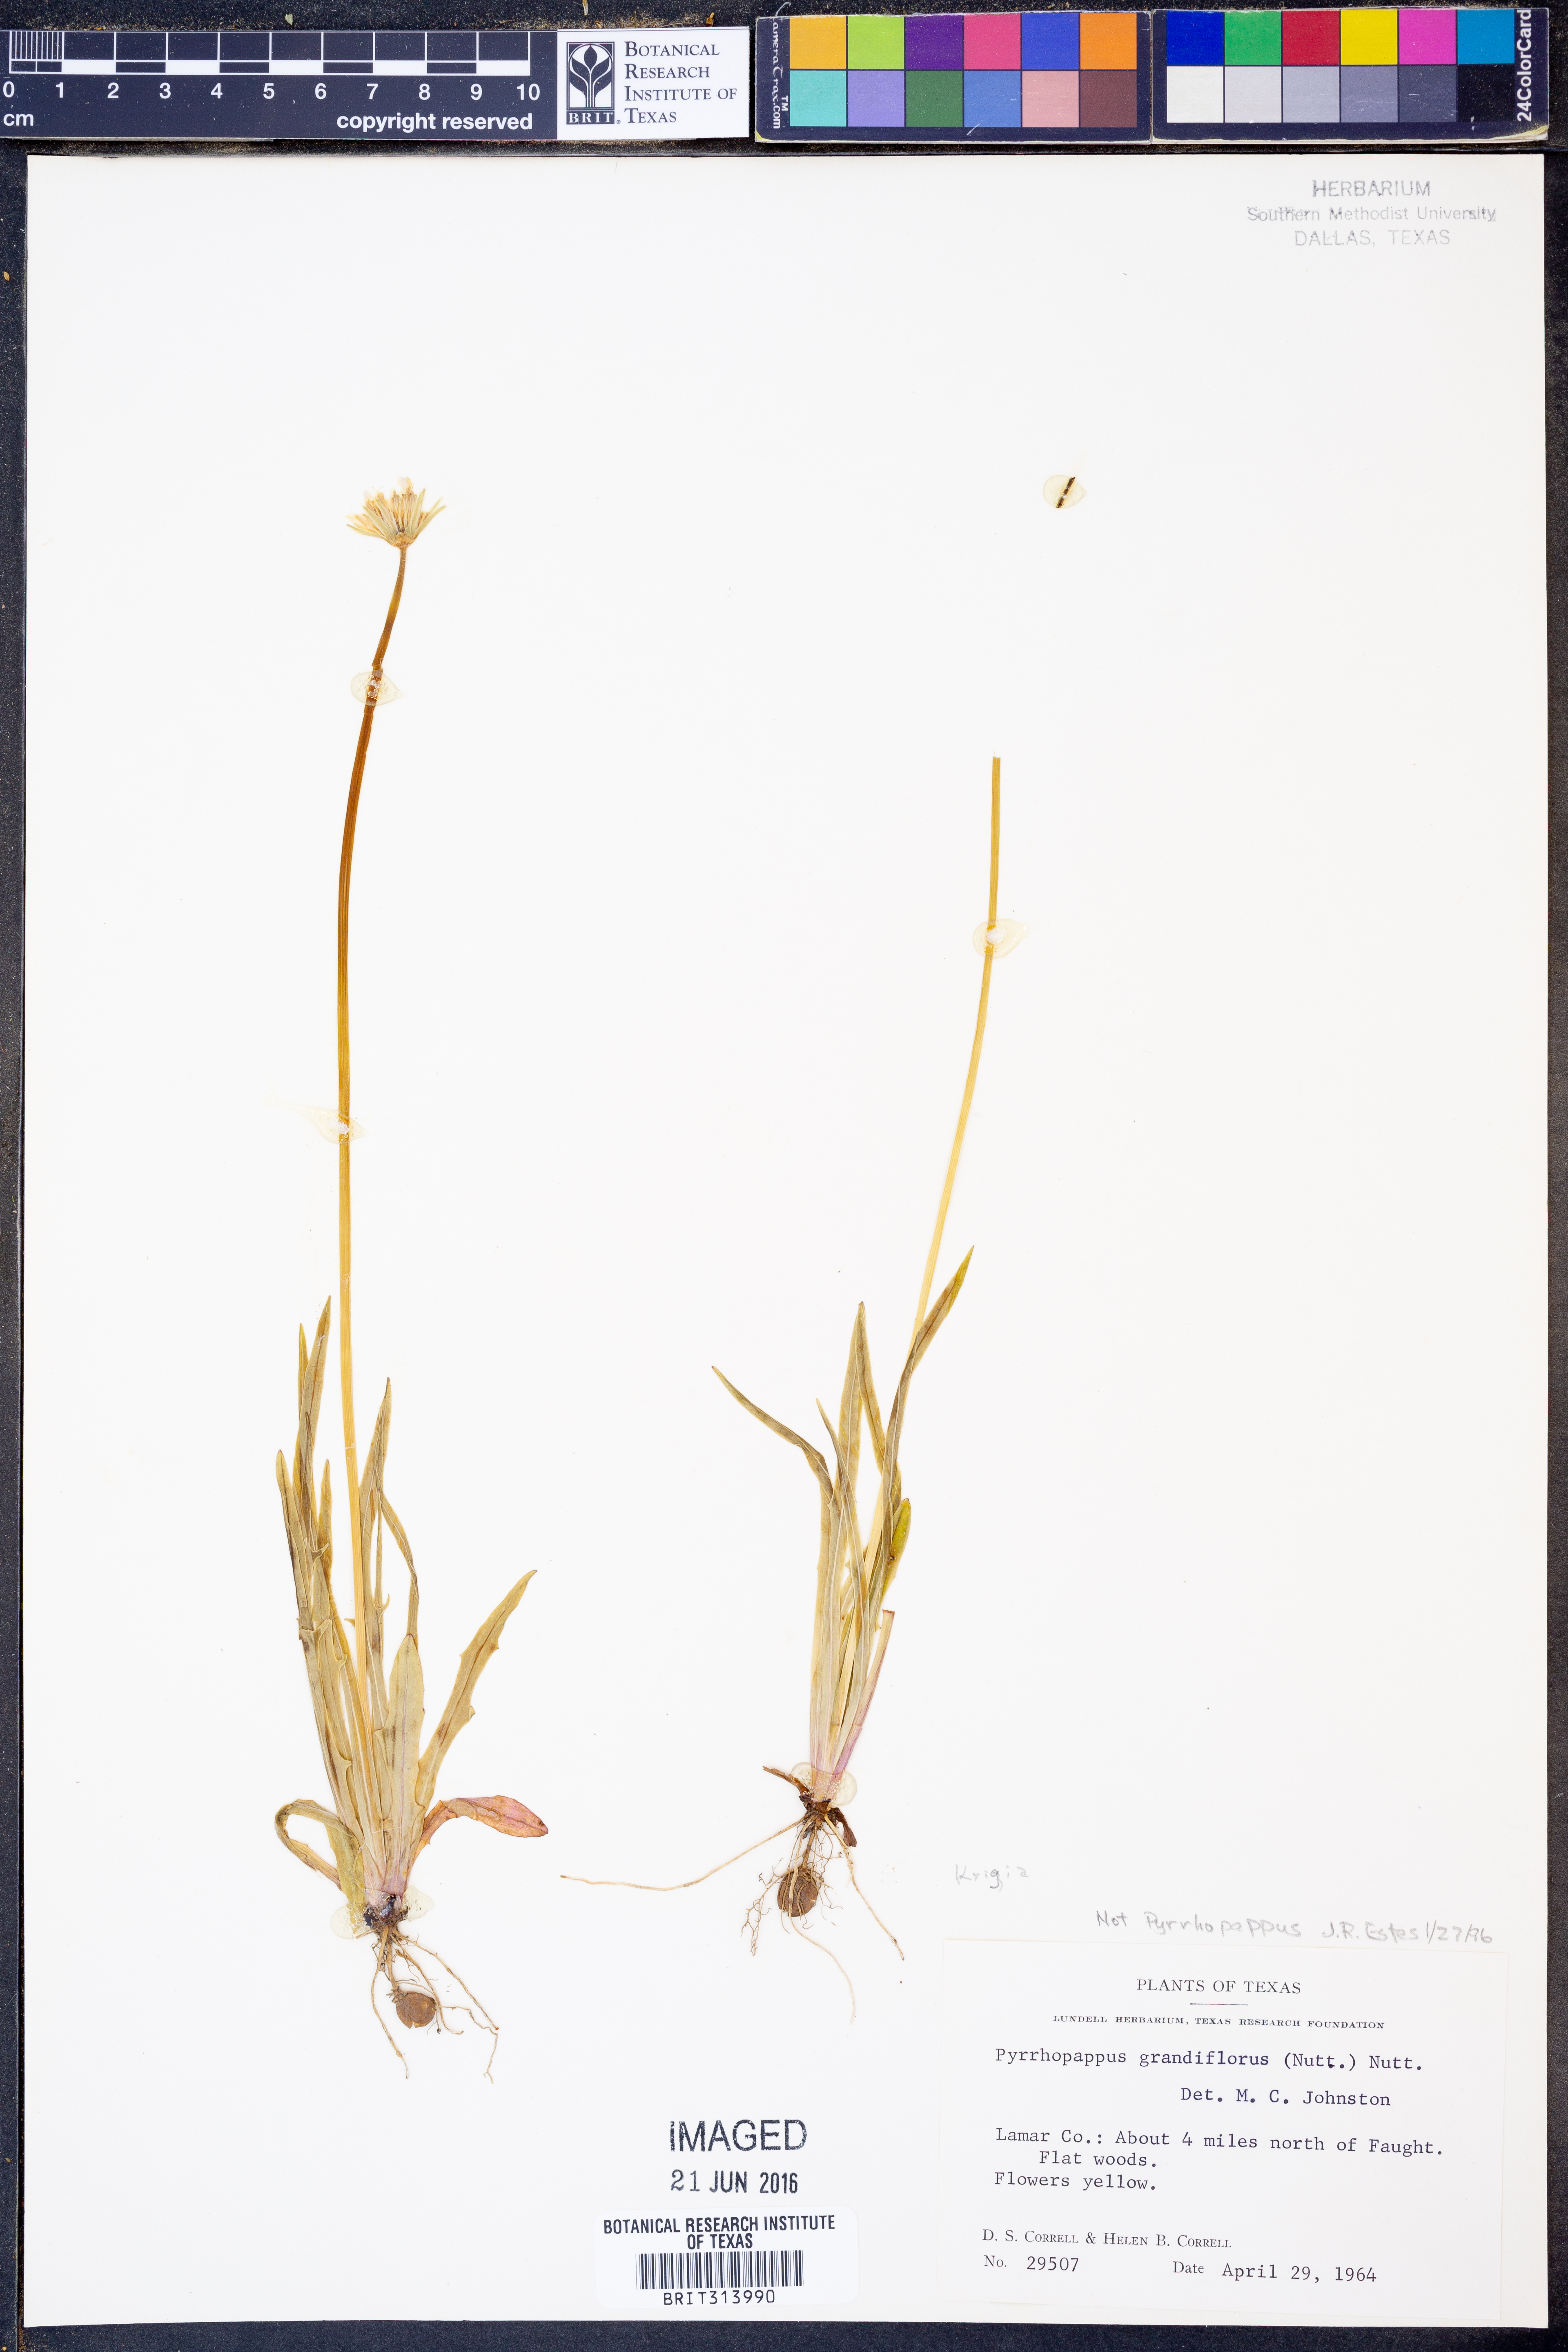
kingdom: Plantae
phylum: Tracheophyta
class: Magnoliopsida
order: Asterales
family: Asteraceae
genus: Krigia
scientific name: Krigia
